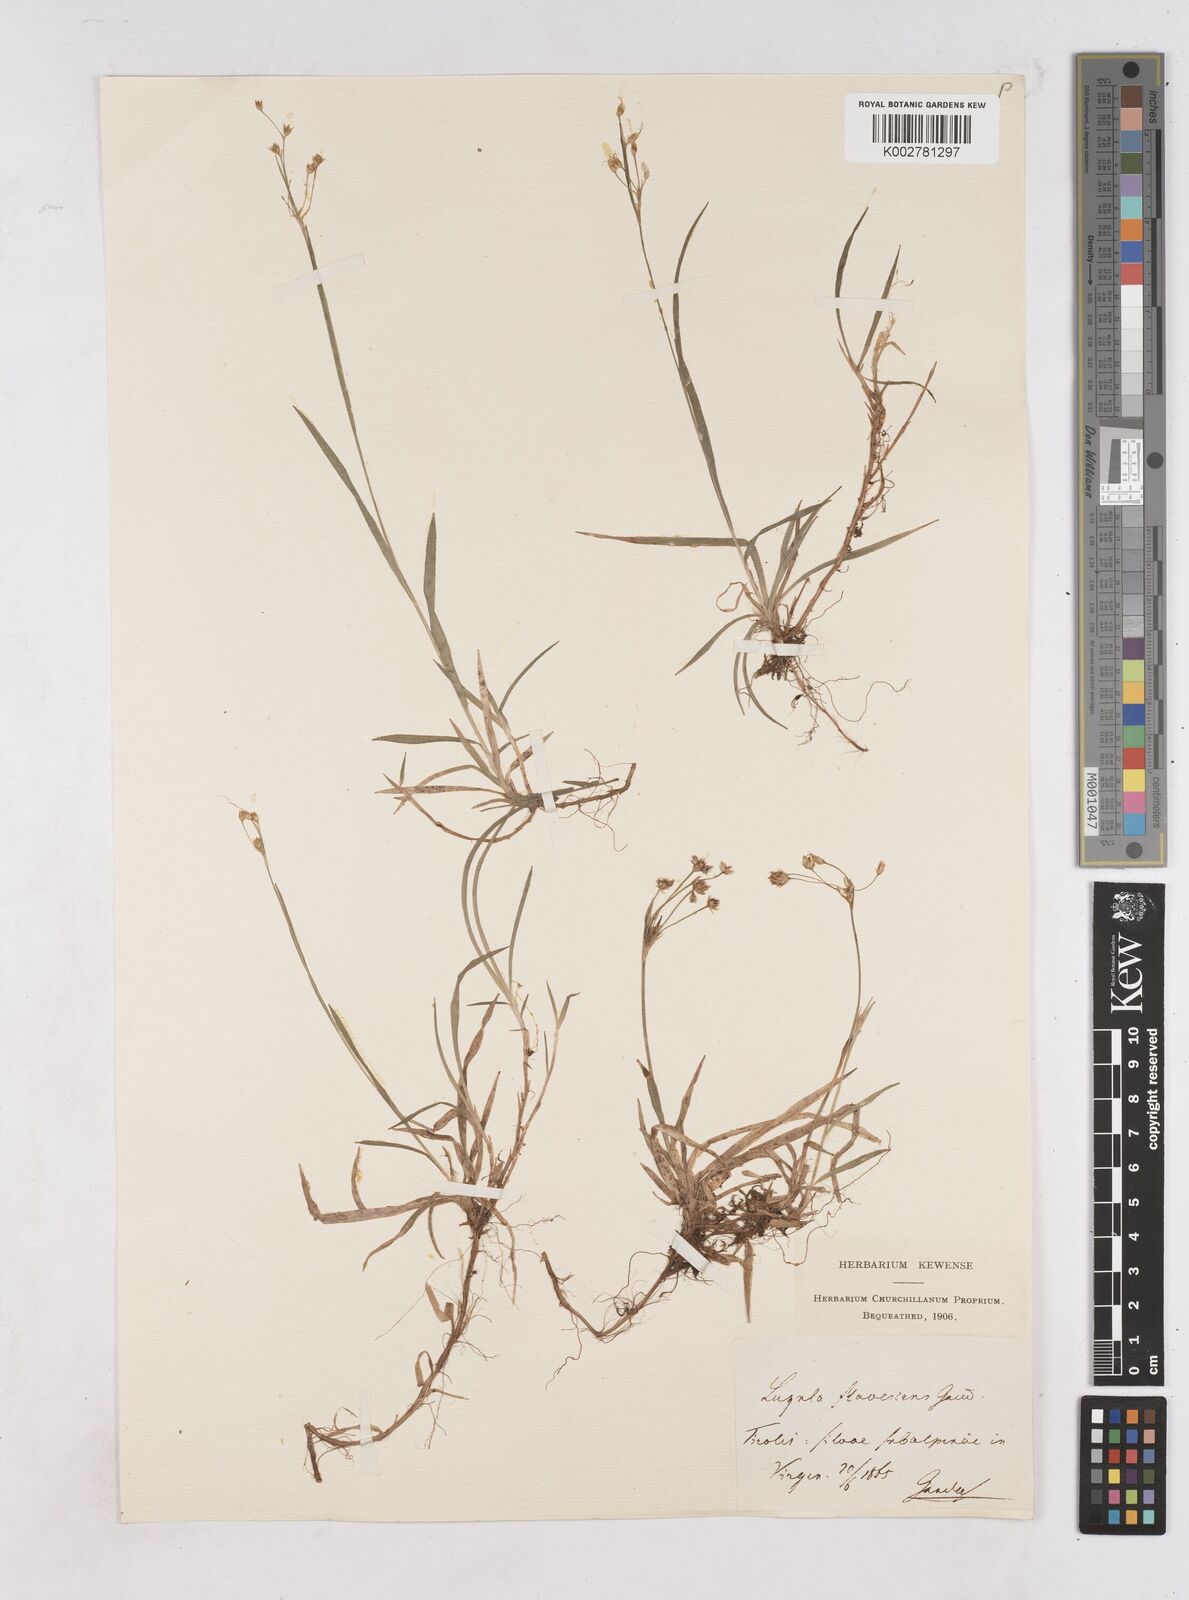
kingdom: Plantae
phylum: Tracheophyta
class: Liliopsida
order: Poales
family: Juncaceae
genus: Luzula
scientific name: Luzula luzulina
